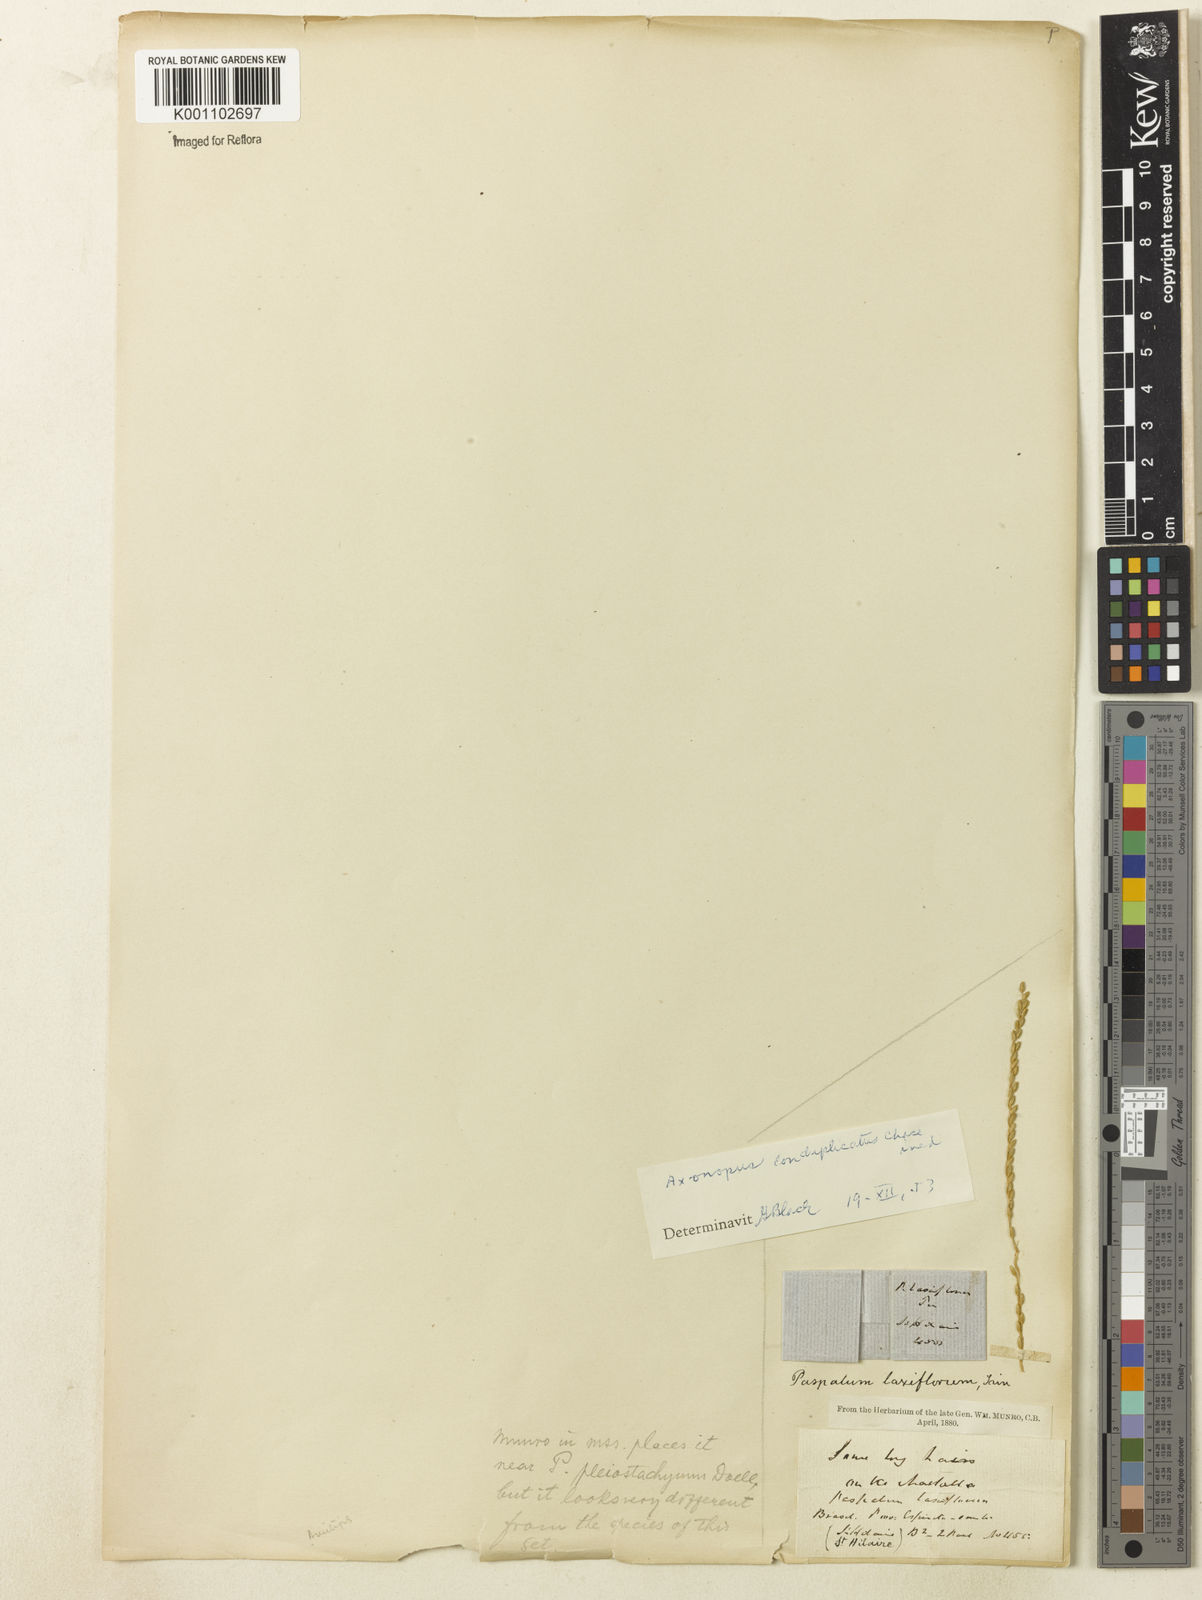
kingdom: Plantae
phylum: Tracheophyta
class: Liliopsida
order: Poales
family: Poaceae
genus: Axonopus
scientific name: Axonopus laxiflorus
